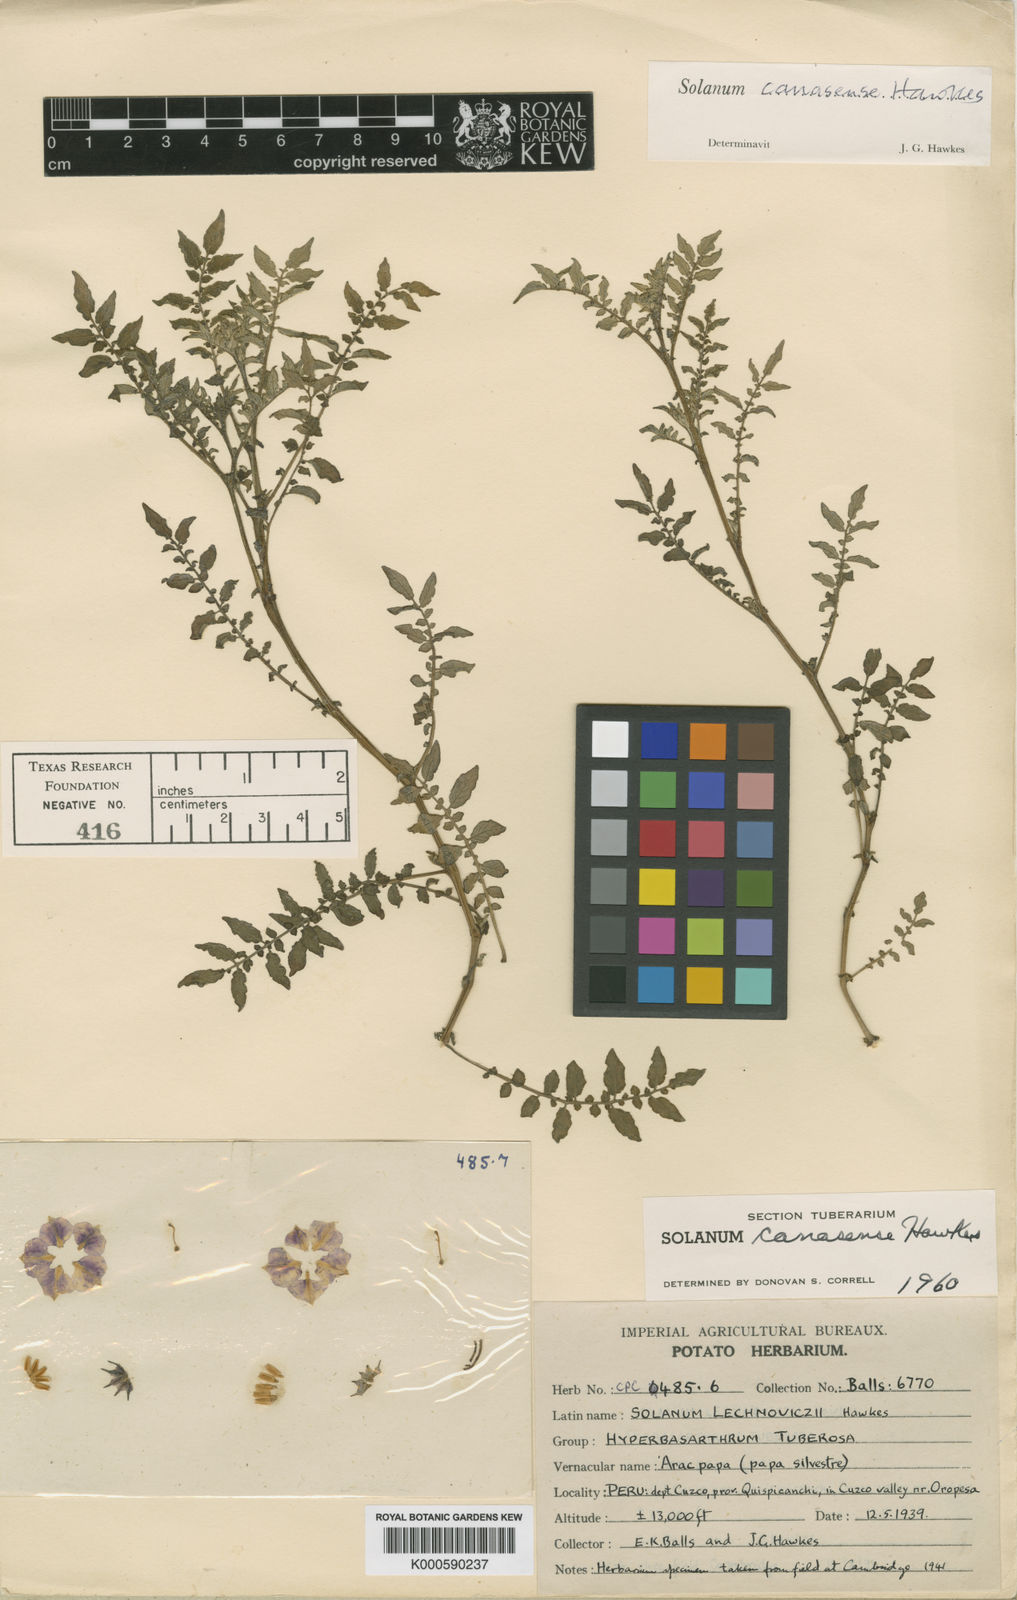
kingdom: Plantae
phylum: Tracheophyta
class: Magnoliopsida
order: Solanales
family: Solanaceae
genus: Solanum
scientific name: Solanum candolleanum
